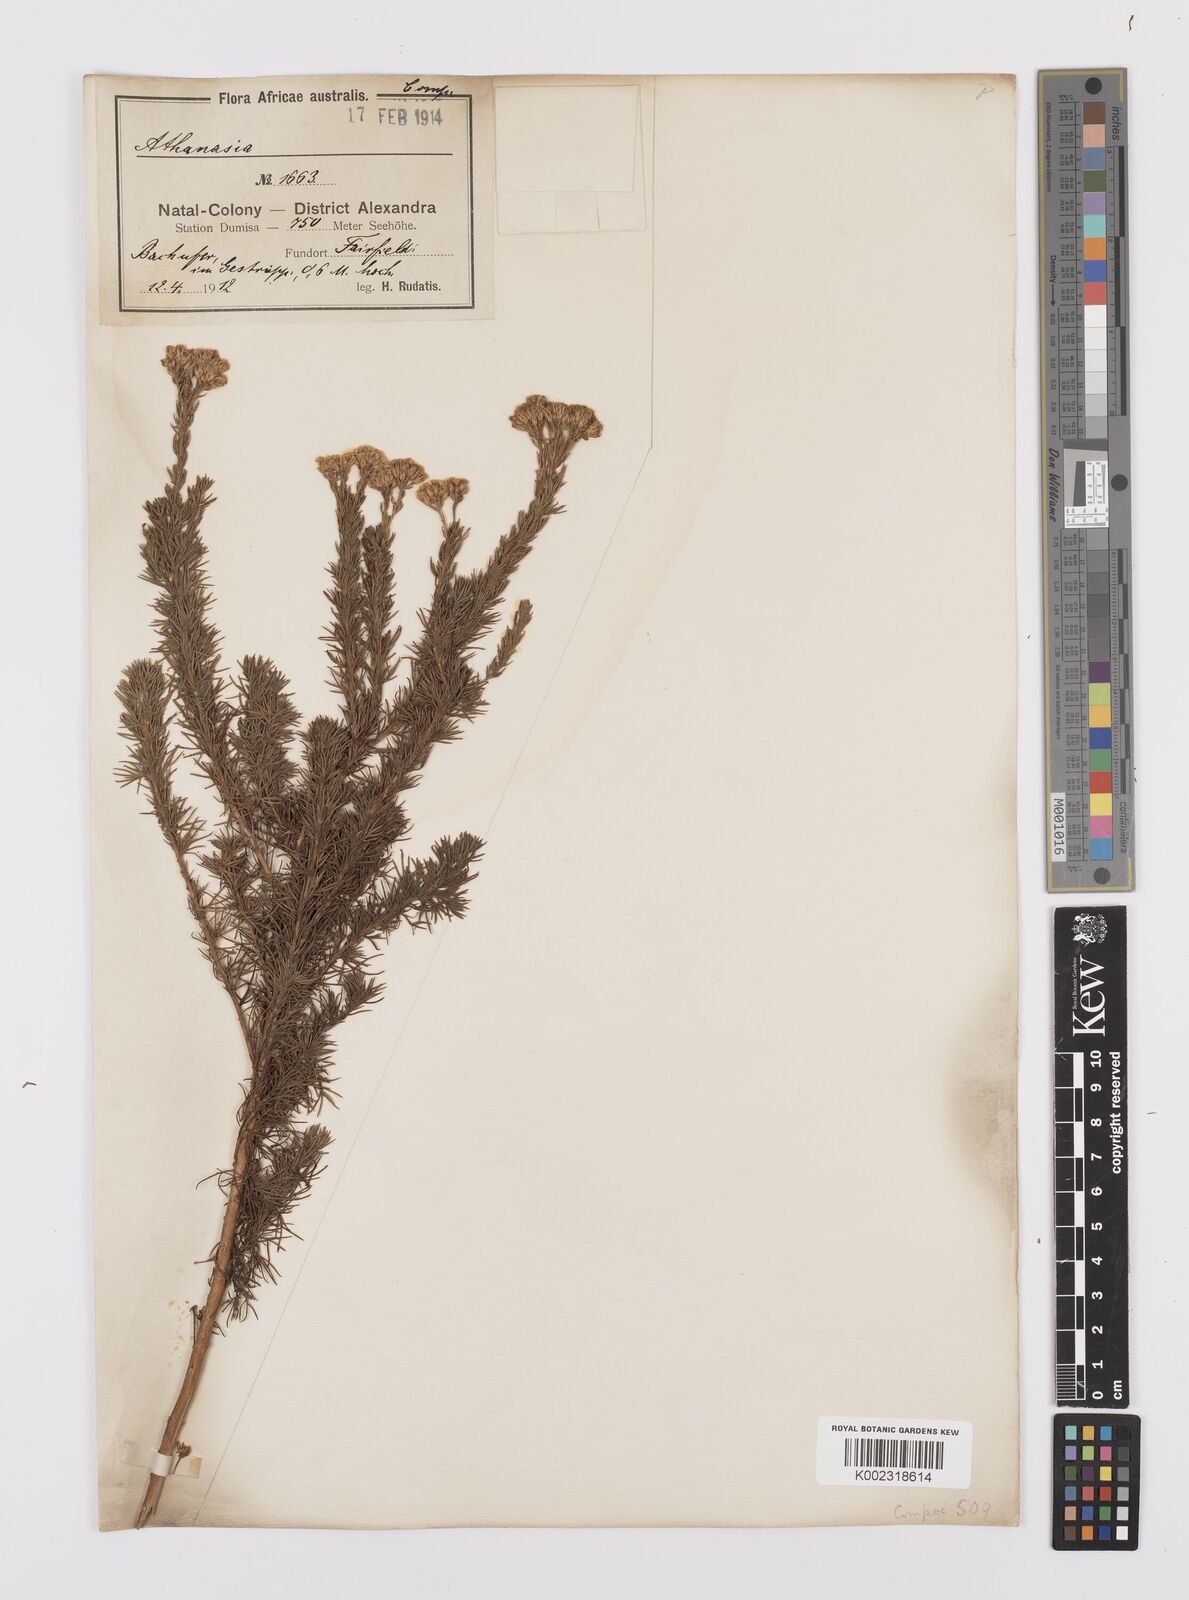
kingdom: Plantae
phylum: Tracheophyta
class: Magnoliopsida
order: Asterales
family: Asteraceae
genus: Phymaspermum
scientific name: Phymaspermum acerosum
